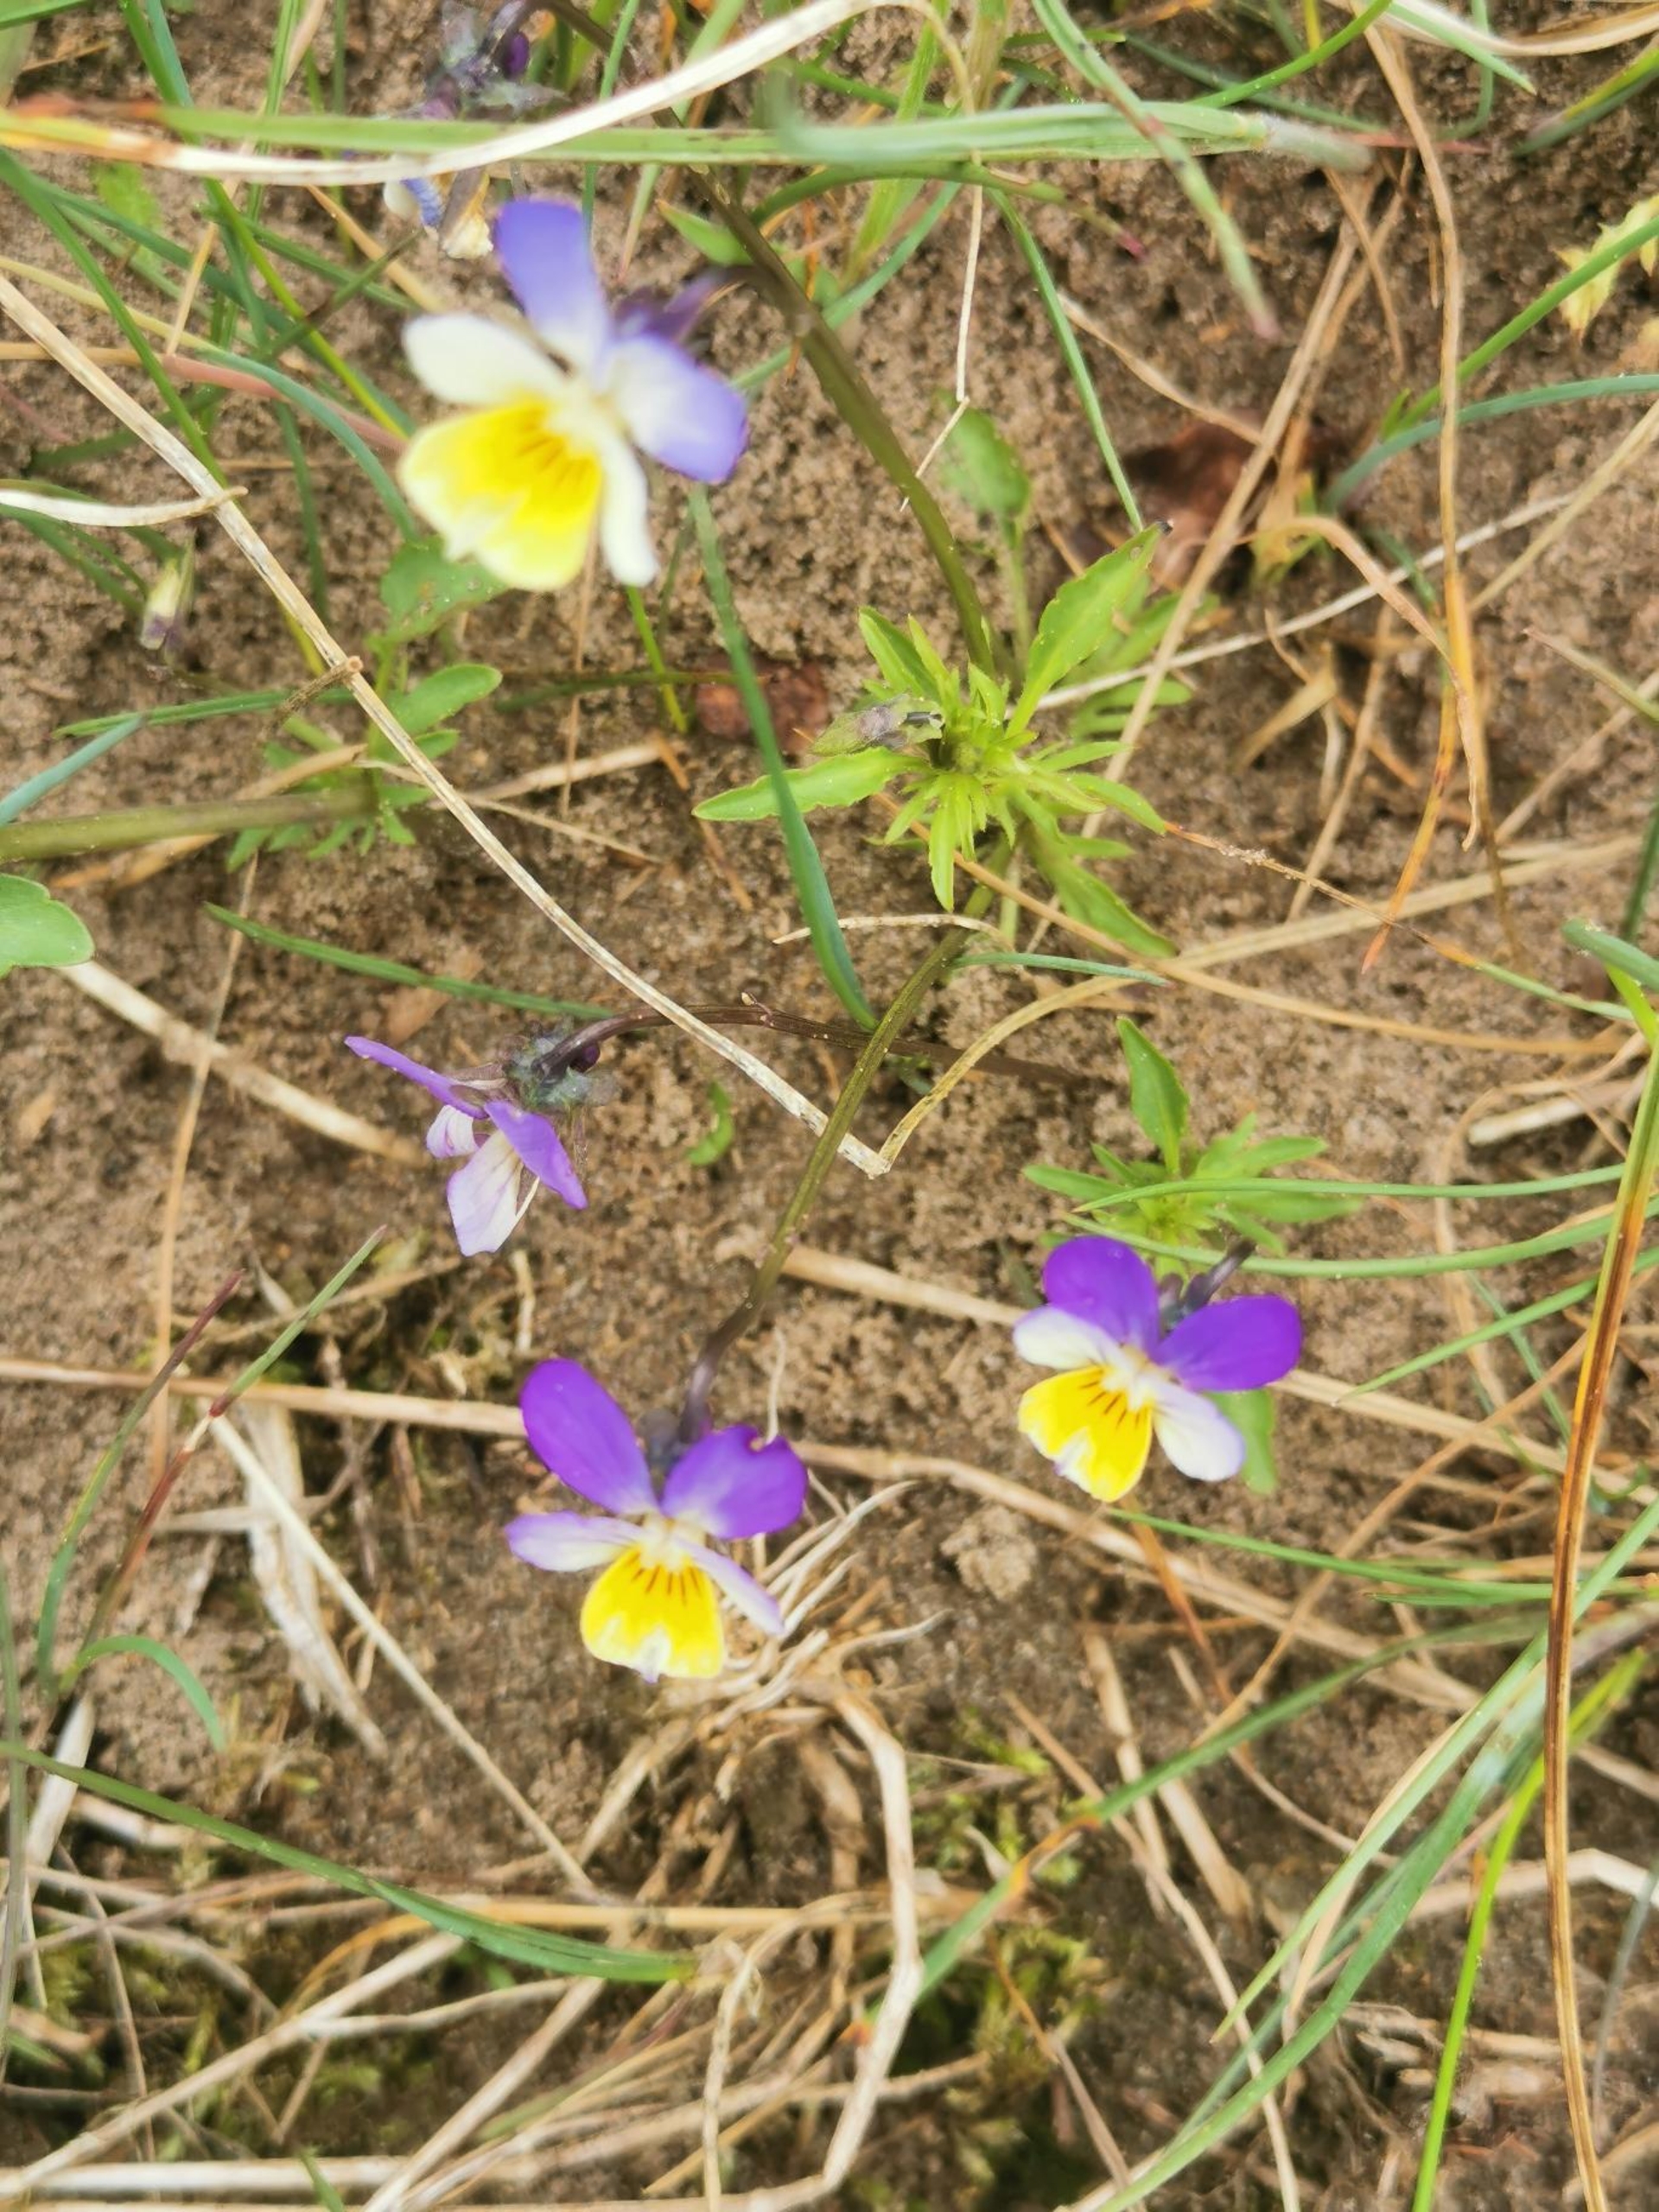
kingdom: Plantae
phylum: Tracheophyta
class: Magnoliopsida
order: Malpighiales
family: Violaceae
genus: Viola
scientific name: Viola tricolor
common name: Almindelig stedmoderblomst
